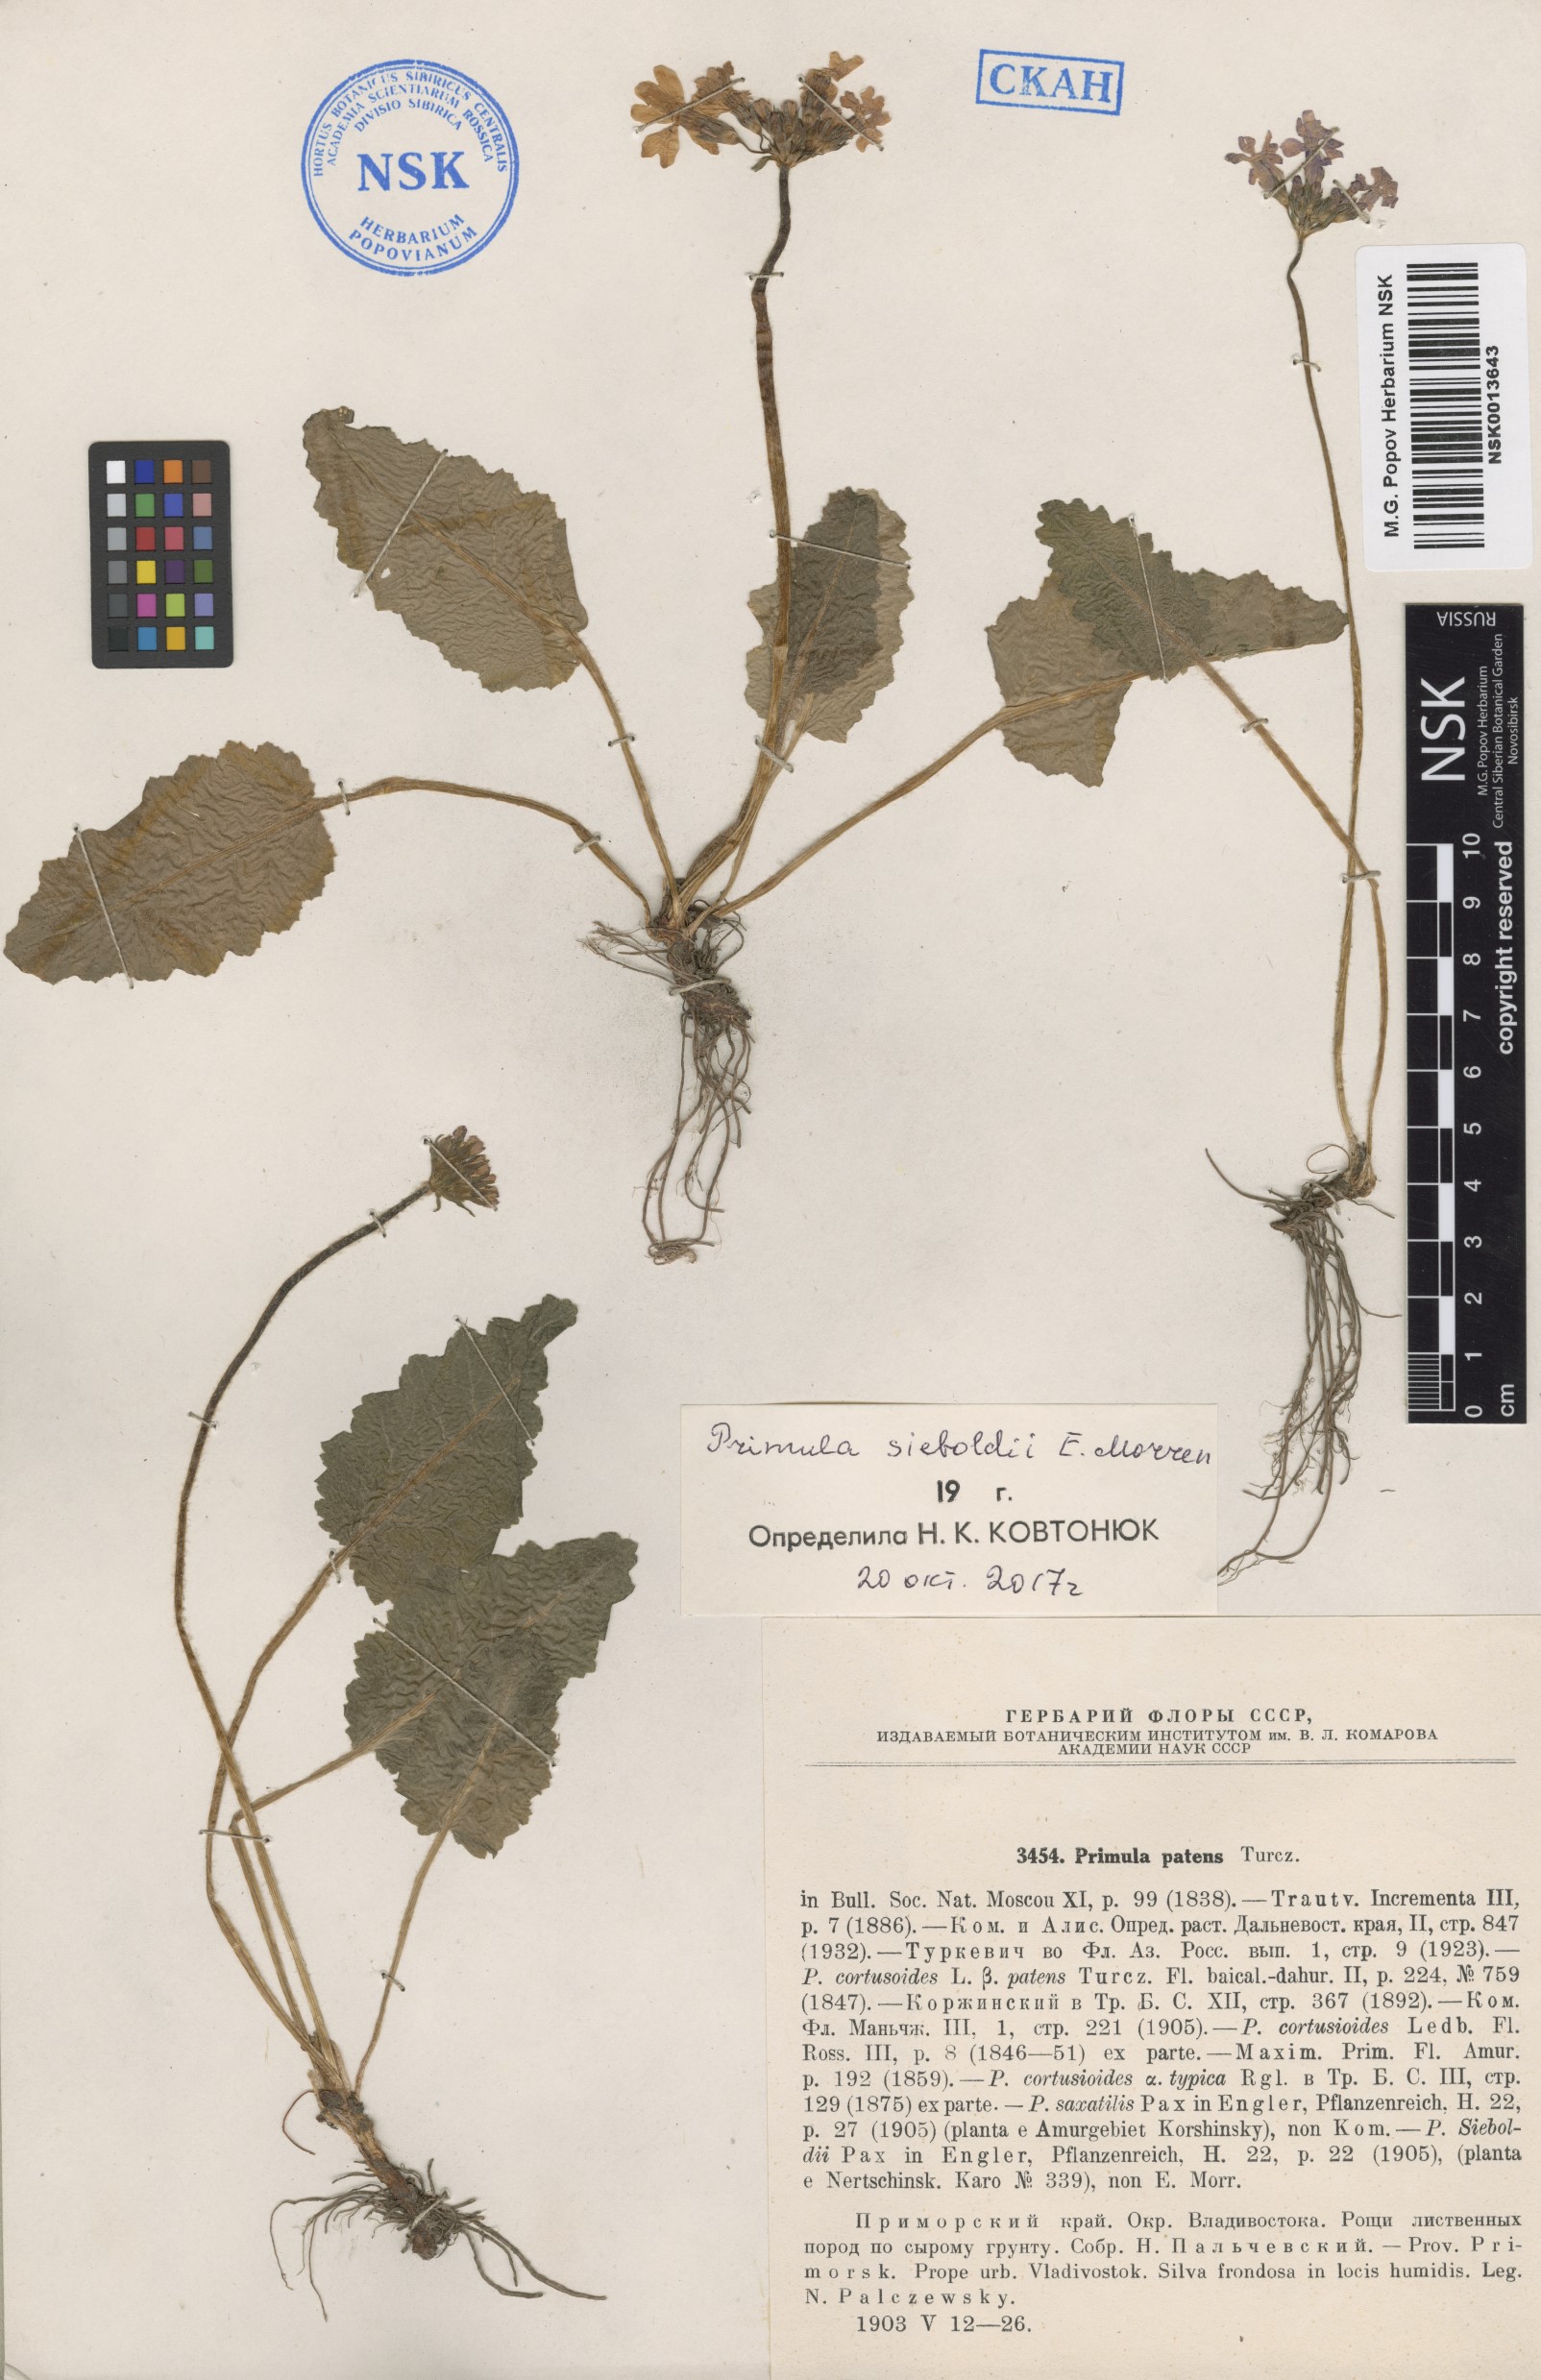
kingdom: Plantae
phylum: Tracheophyta
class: Magnoliopsida
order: Ericales
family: Primulaceae
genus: Primula
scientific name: Primula sieboldii
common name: Japanese primrose
